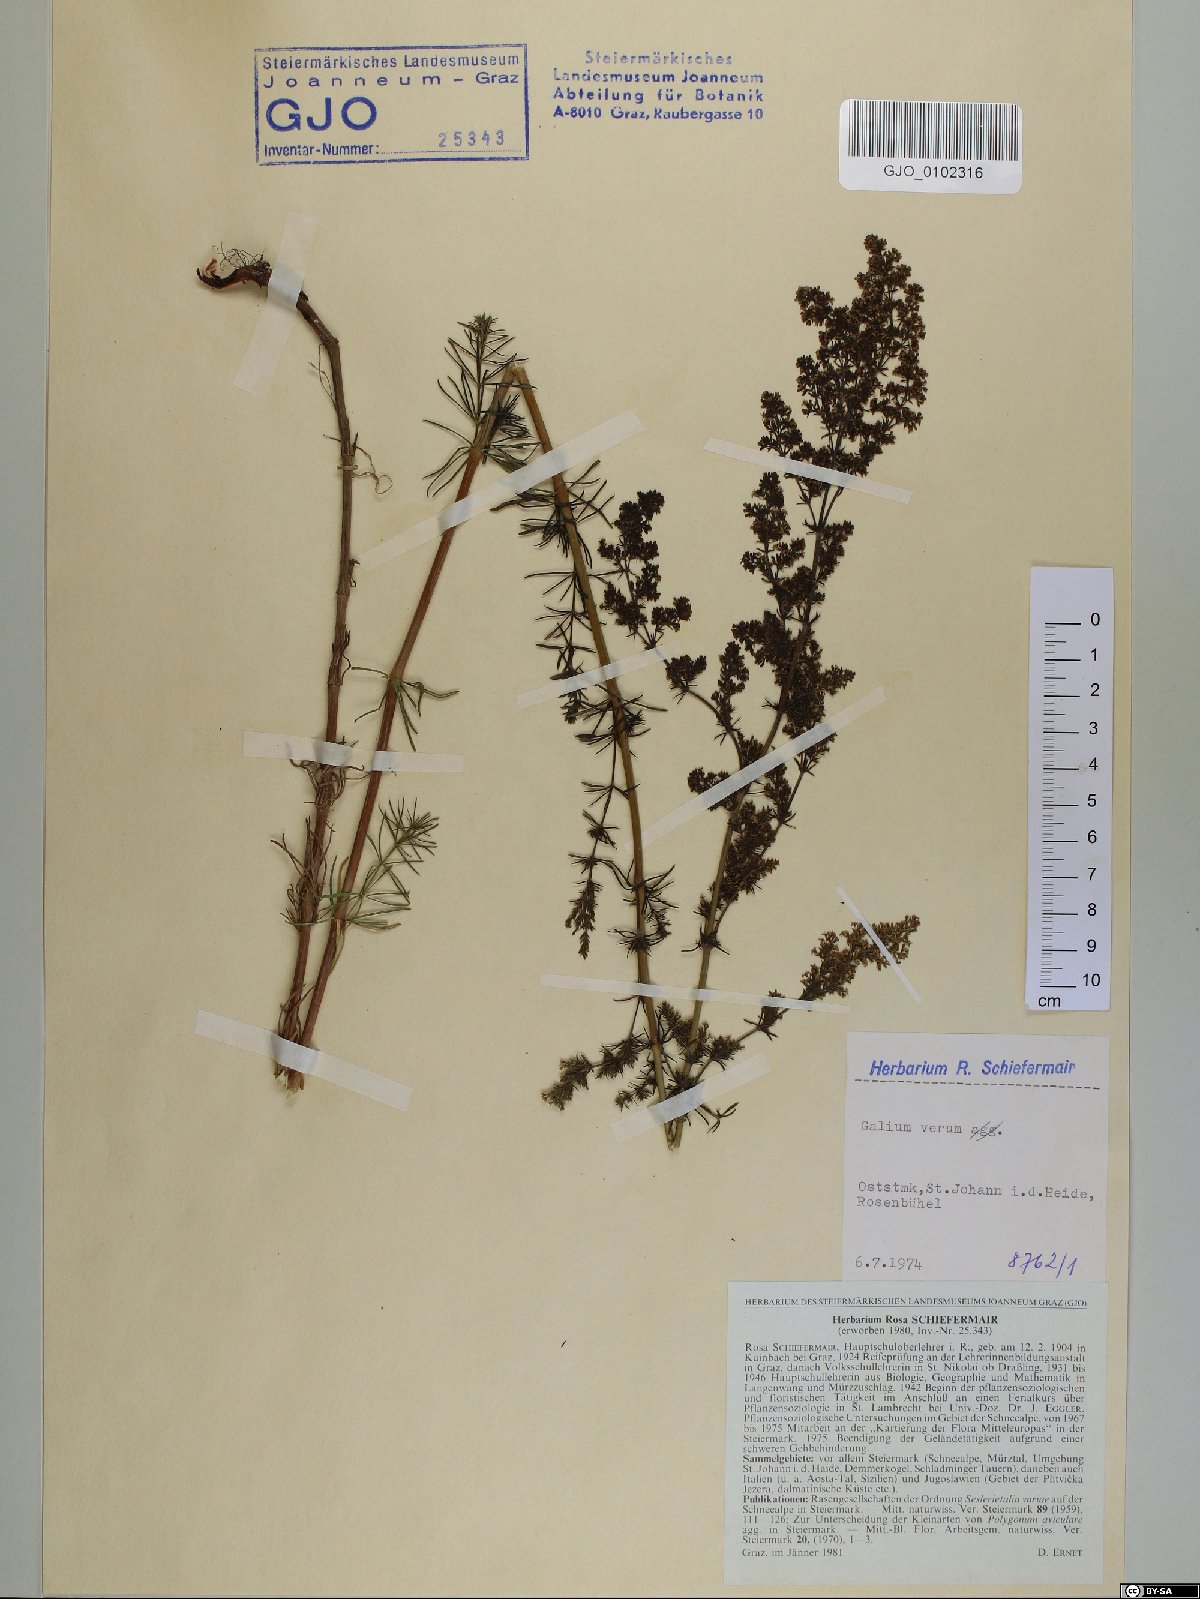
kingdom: Plantae
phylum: Tracheophyta
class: Magnoliopsida
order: Gentianales
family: Rubiaceae
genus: Galium
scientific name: Galium verum
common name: Lady's bedstraw
